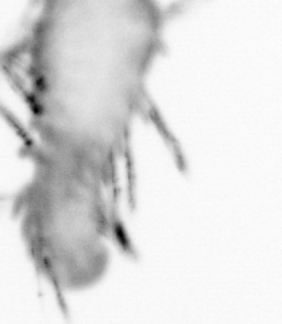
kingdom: Animalia
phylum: Annelida
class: Polychaeta
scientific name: Polychaeta
